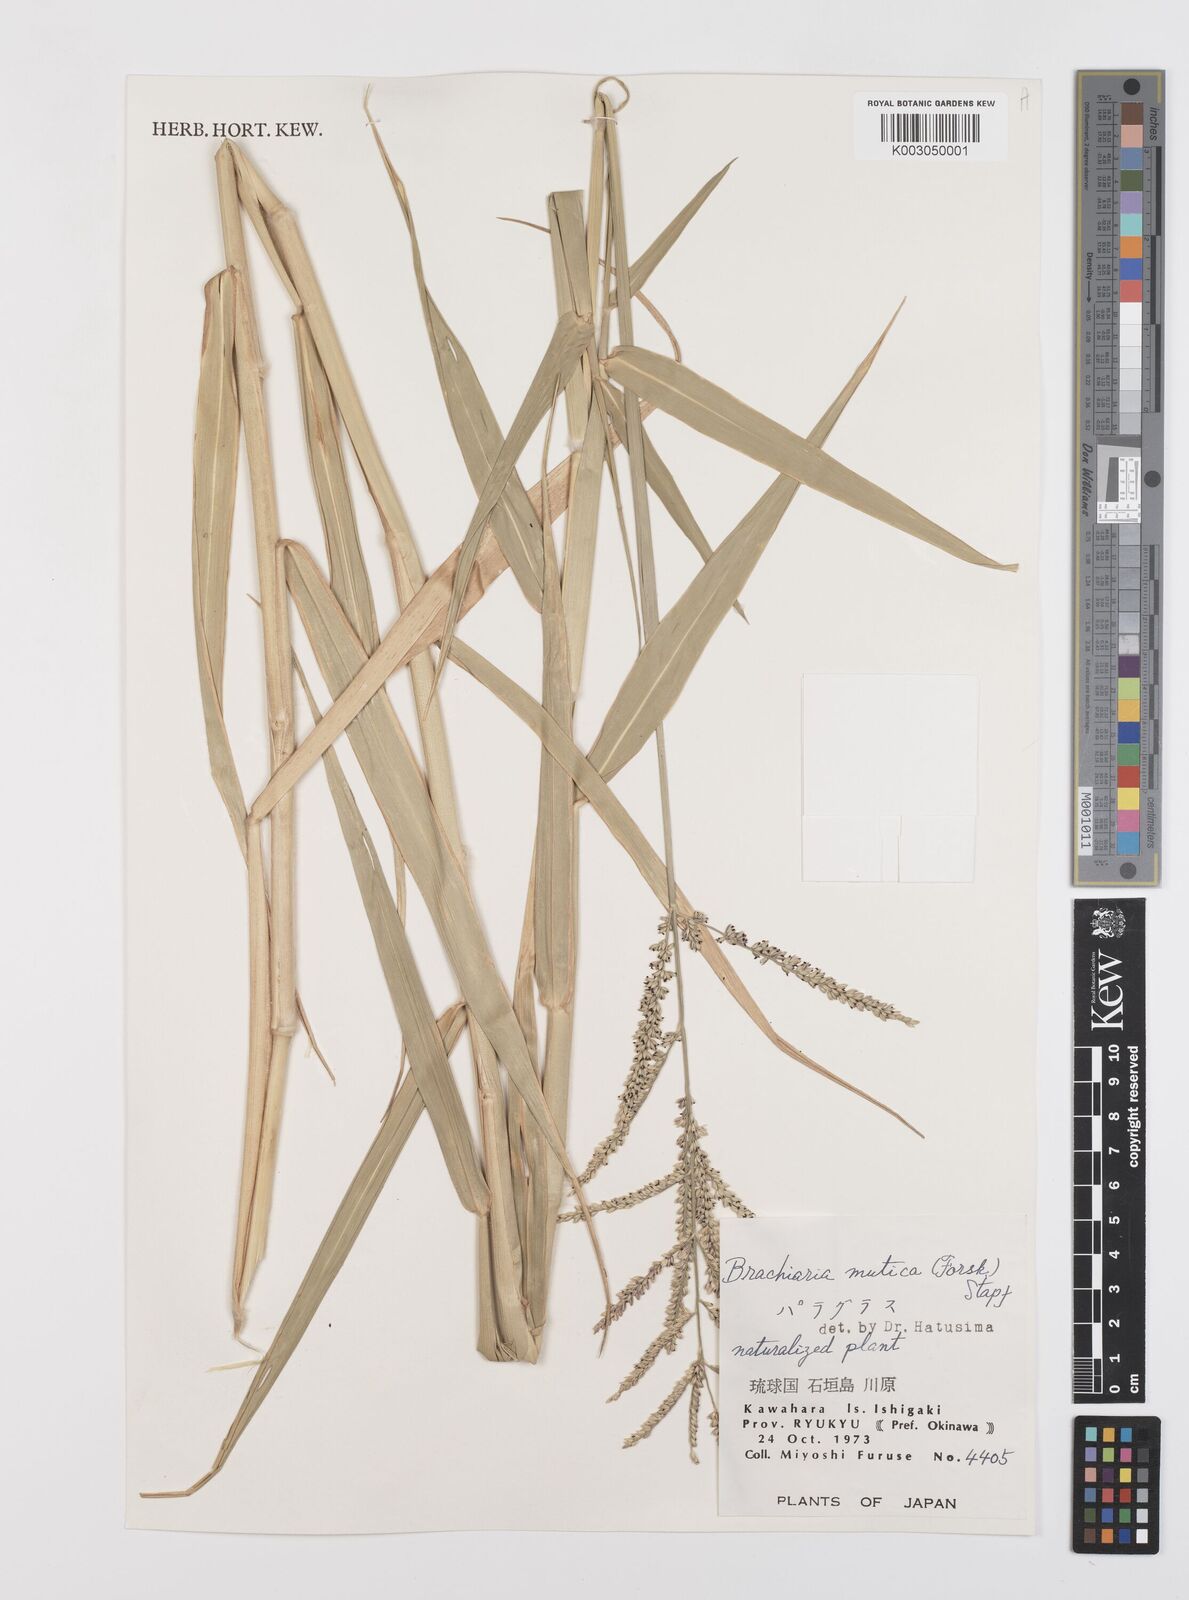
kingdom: Plantae
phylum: Tracheophyta
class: Liliopsida
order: Poales
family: Poaceae
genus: Urochloa
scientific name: Urochloa mutica
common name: Para grass
